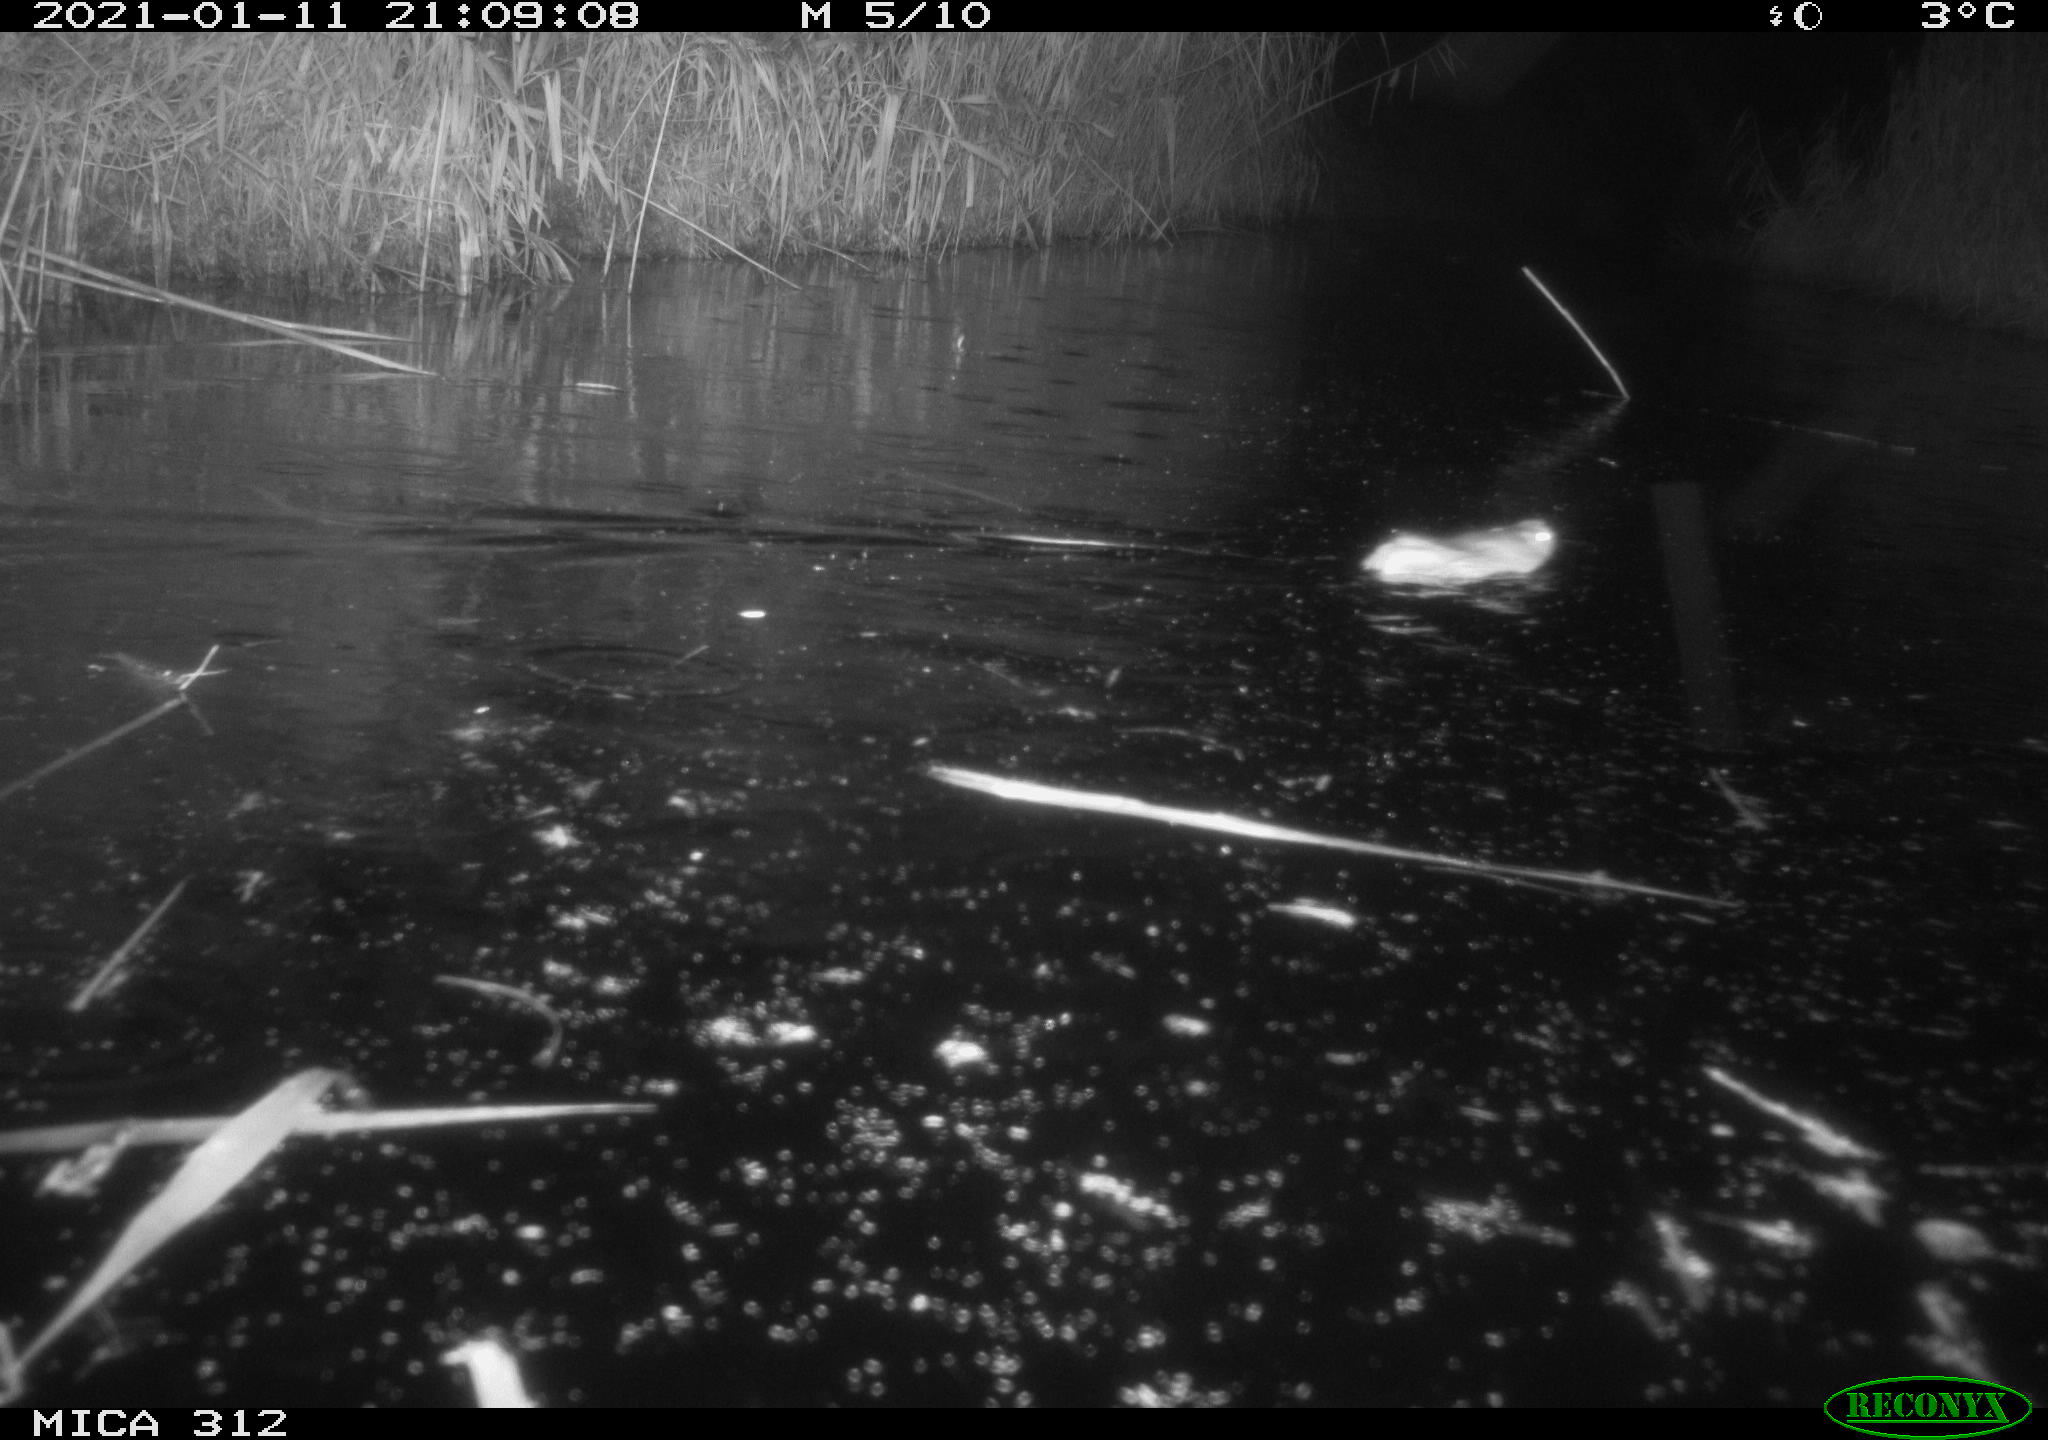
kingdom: Animalia
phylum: Chordata
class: Mammalia
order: Rodentia
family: Muridae
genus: Rattus
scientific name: Rattus norvegicus
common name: Brown rat
